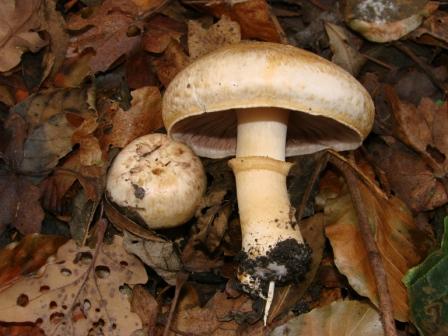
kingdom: Fungi
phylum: Basidiomycota
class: Agaricomycetes
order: Agaricales
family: Agaricaceae
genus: Agaricus
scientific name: Agaricus
